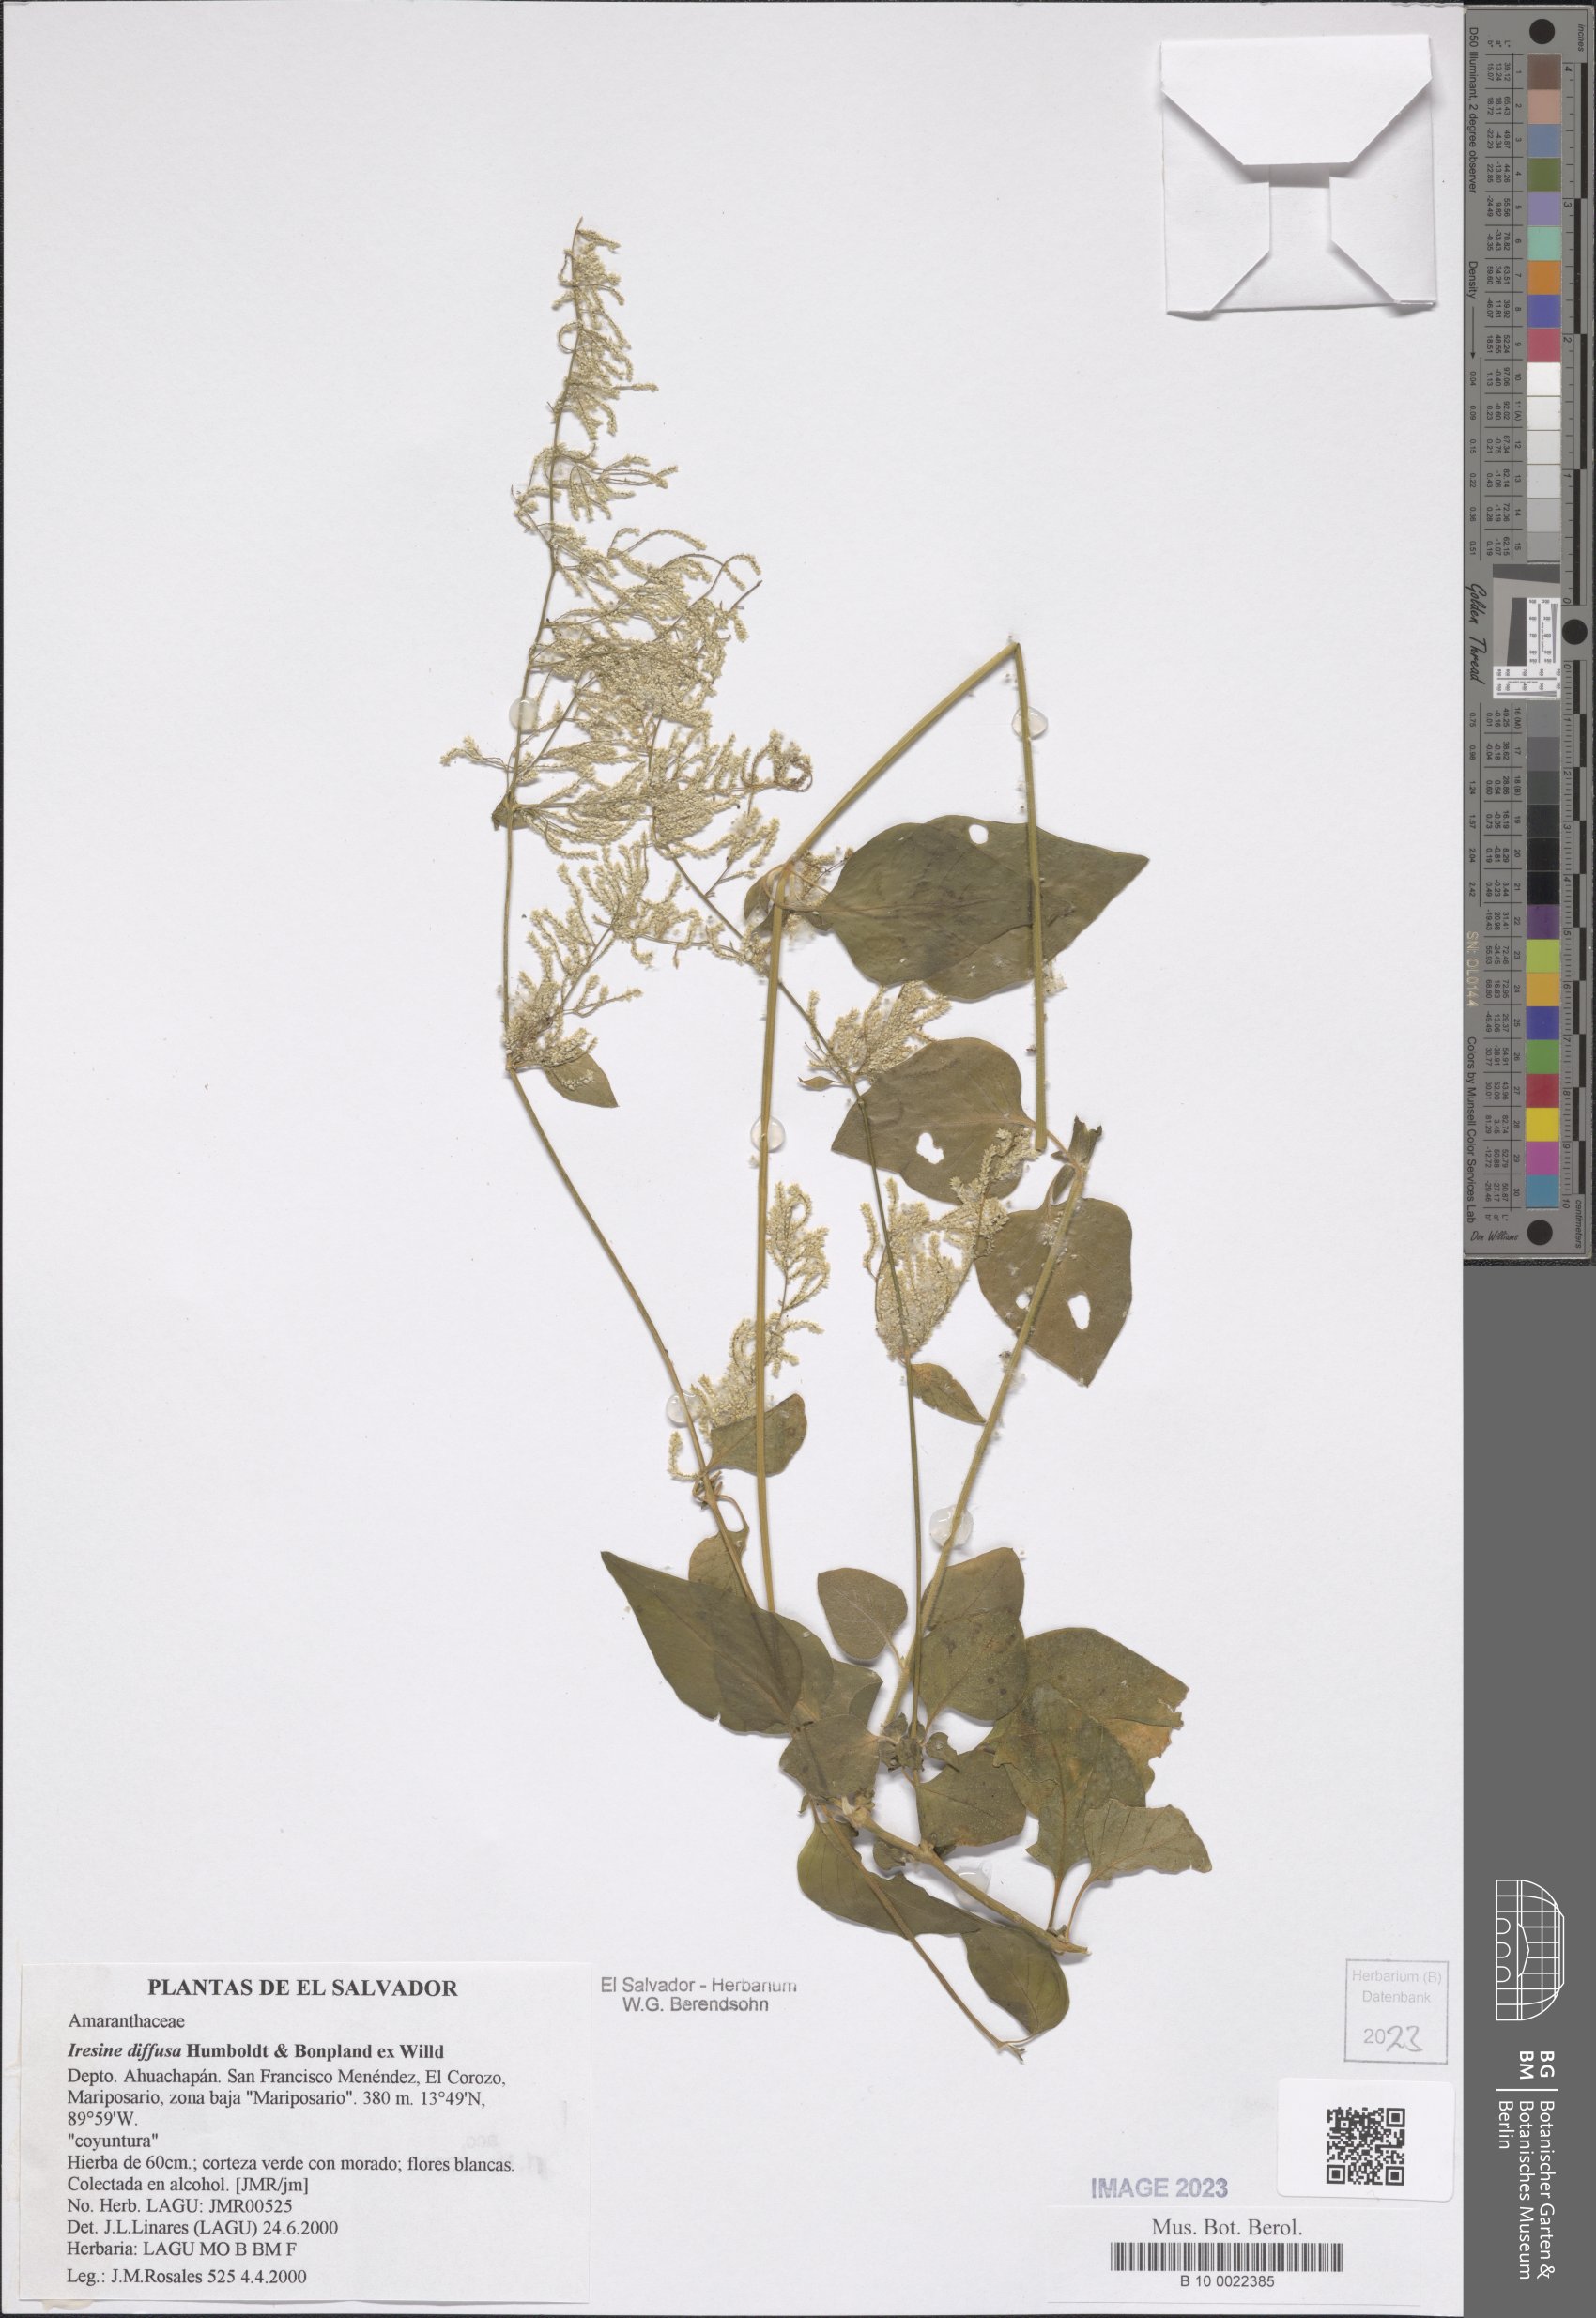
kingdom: Plantae
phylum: Tracheophyta
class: Magnoliopsida
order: Caryophyllales
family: Amaranthaceae
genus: Iresine
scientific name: Iresine diffusa
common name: Juba's-bush
